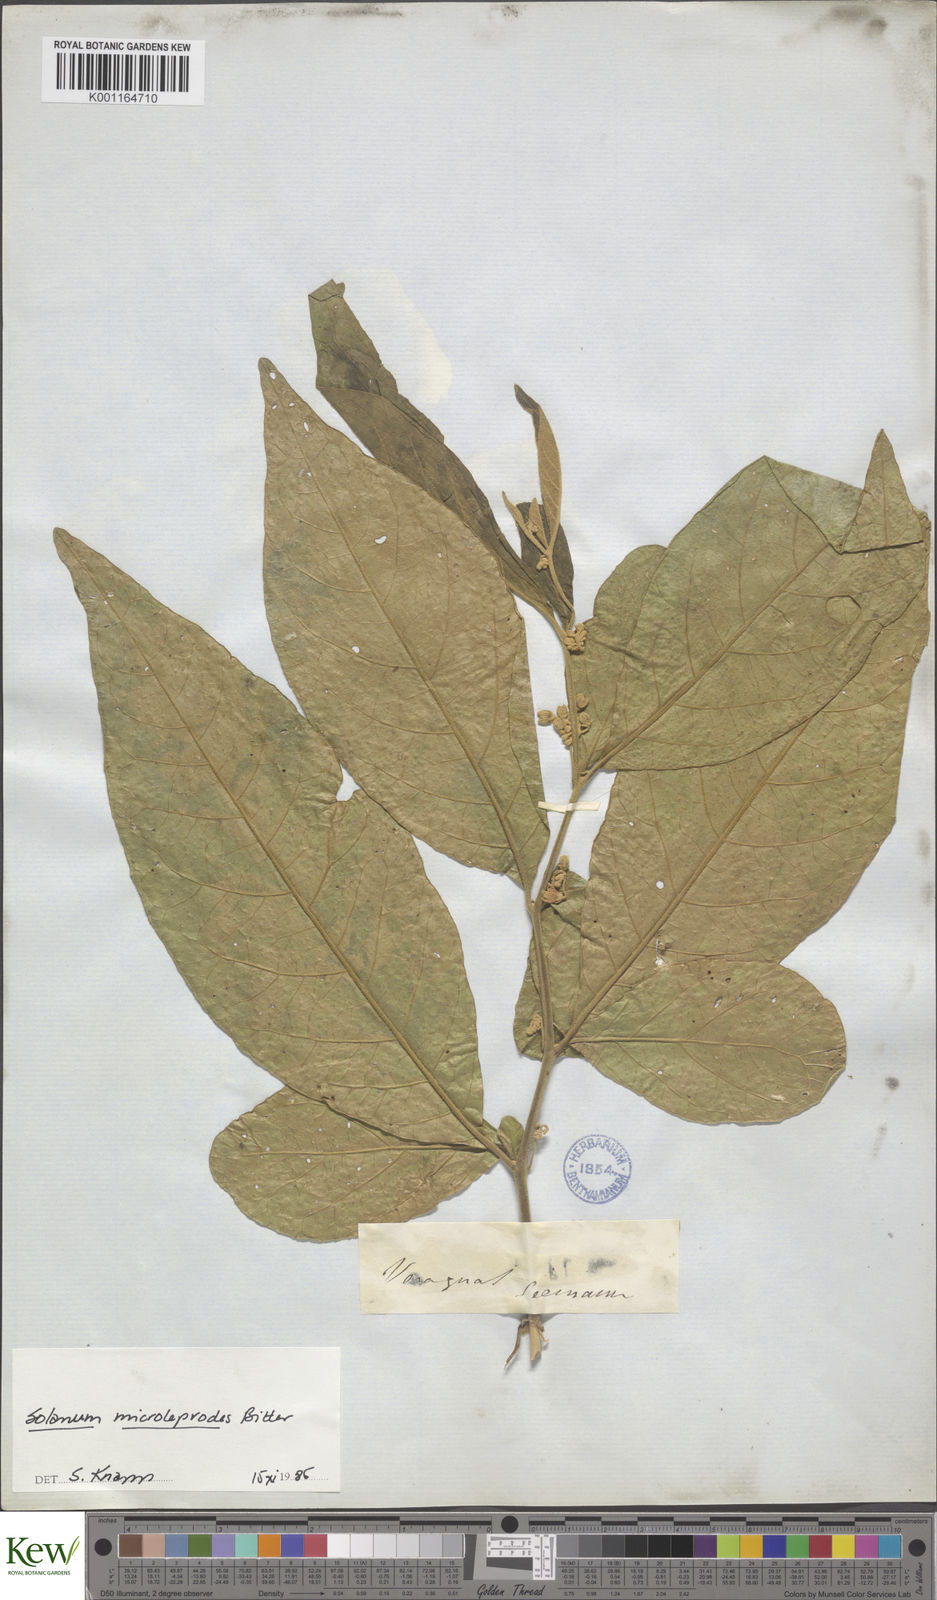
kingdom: Plantae
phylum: Tracheophyta
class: Magnoliopsida
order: Solanales
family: Solanaceae
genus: Solanum
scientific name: Solanum microleprodes
